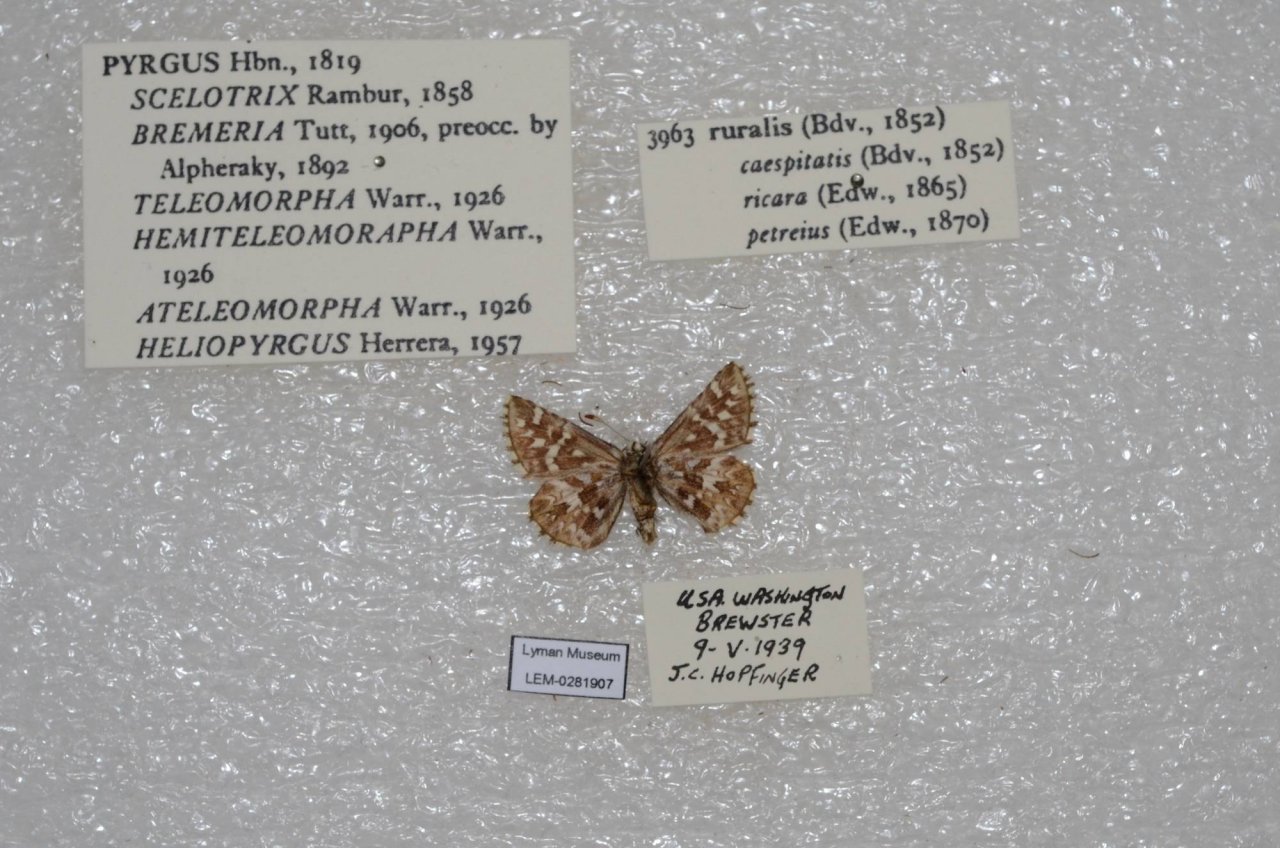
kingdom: Animalia
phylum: Arthropoda
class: Insecta
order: Lepidoptera
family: Hesperiidae
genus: Pyrgus
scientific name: Pyrgus ruralis
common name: Two-banded Checkered-Skipper
